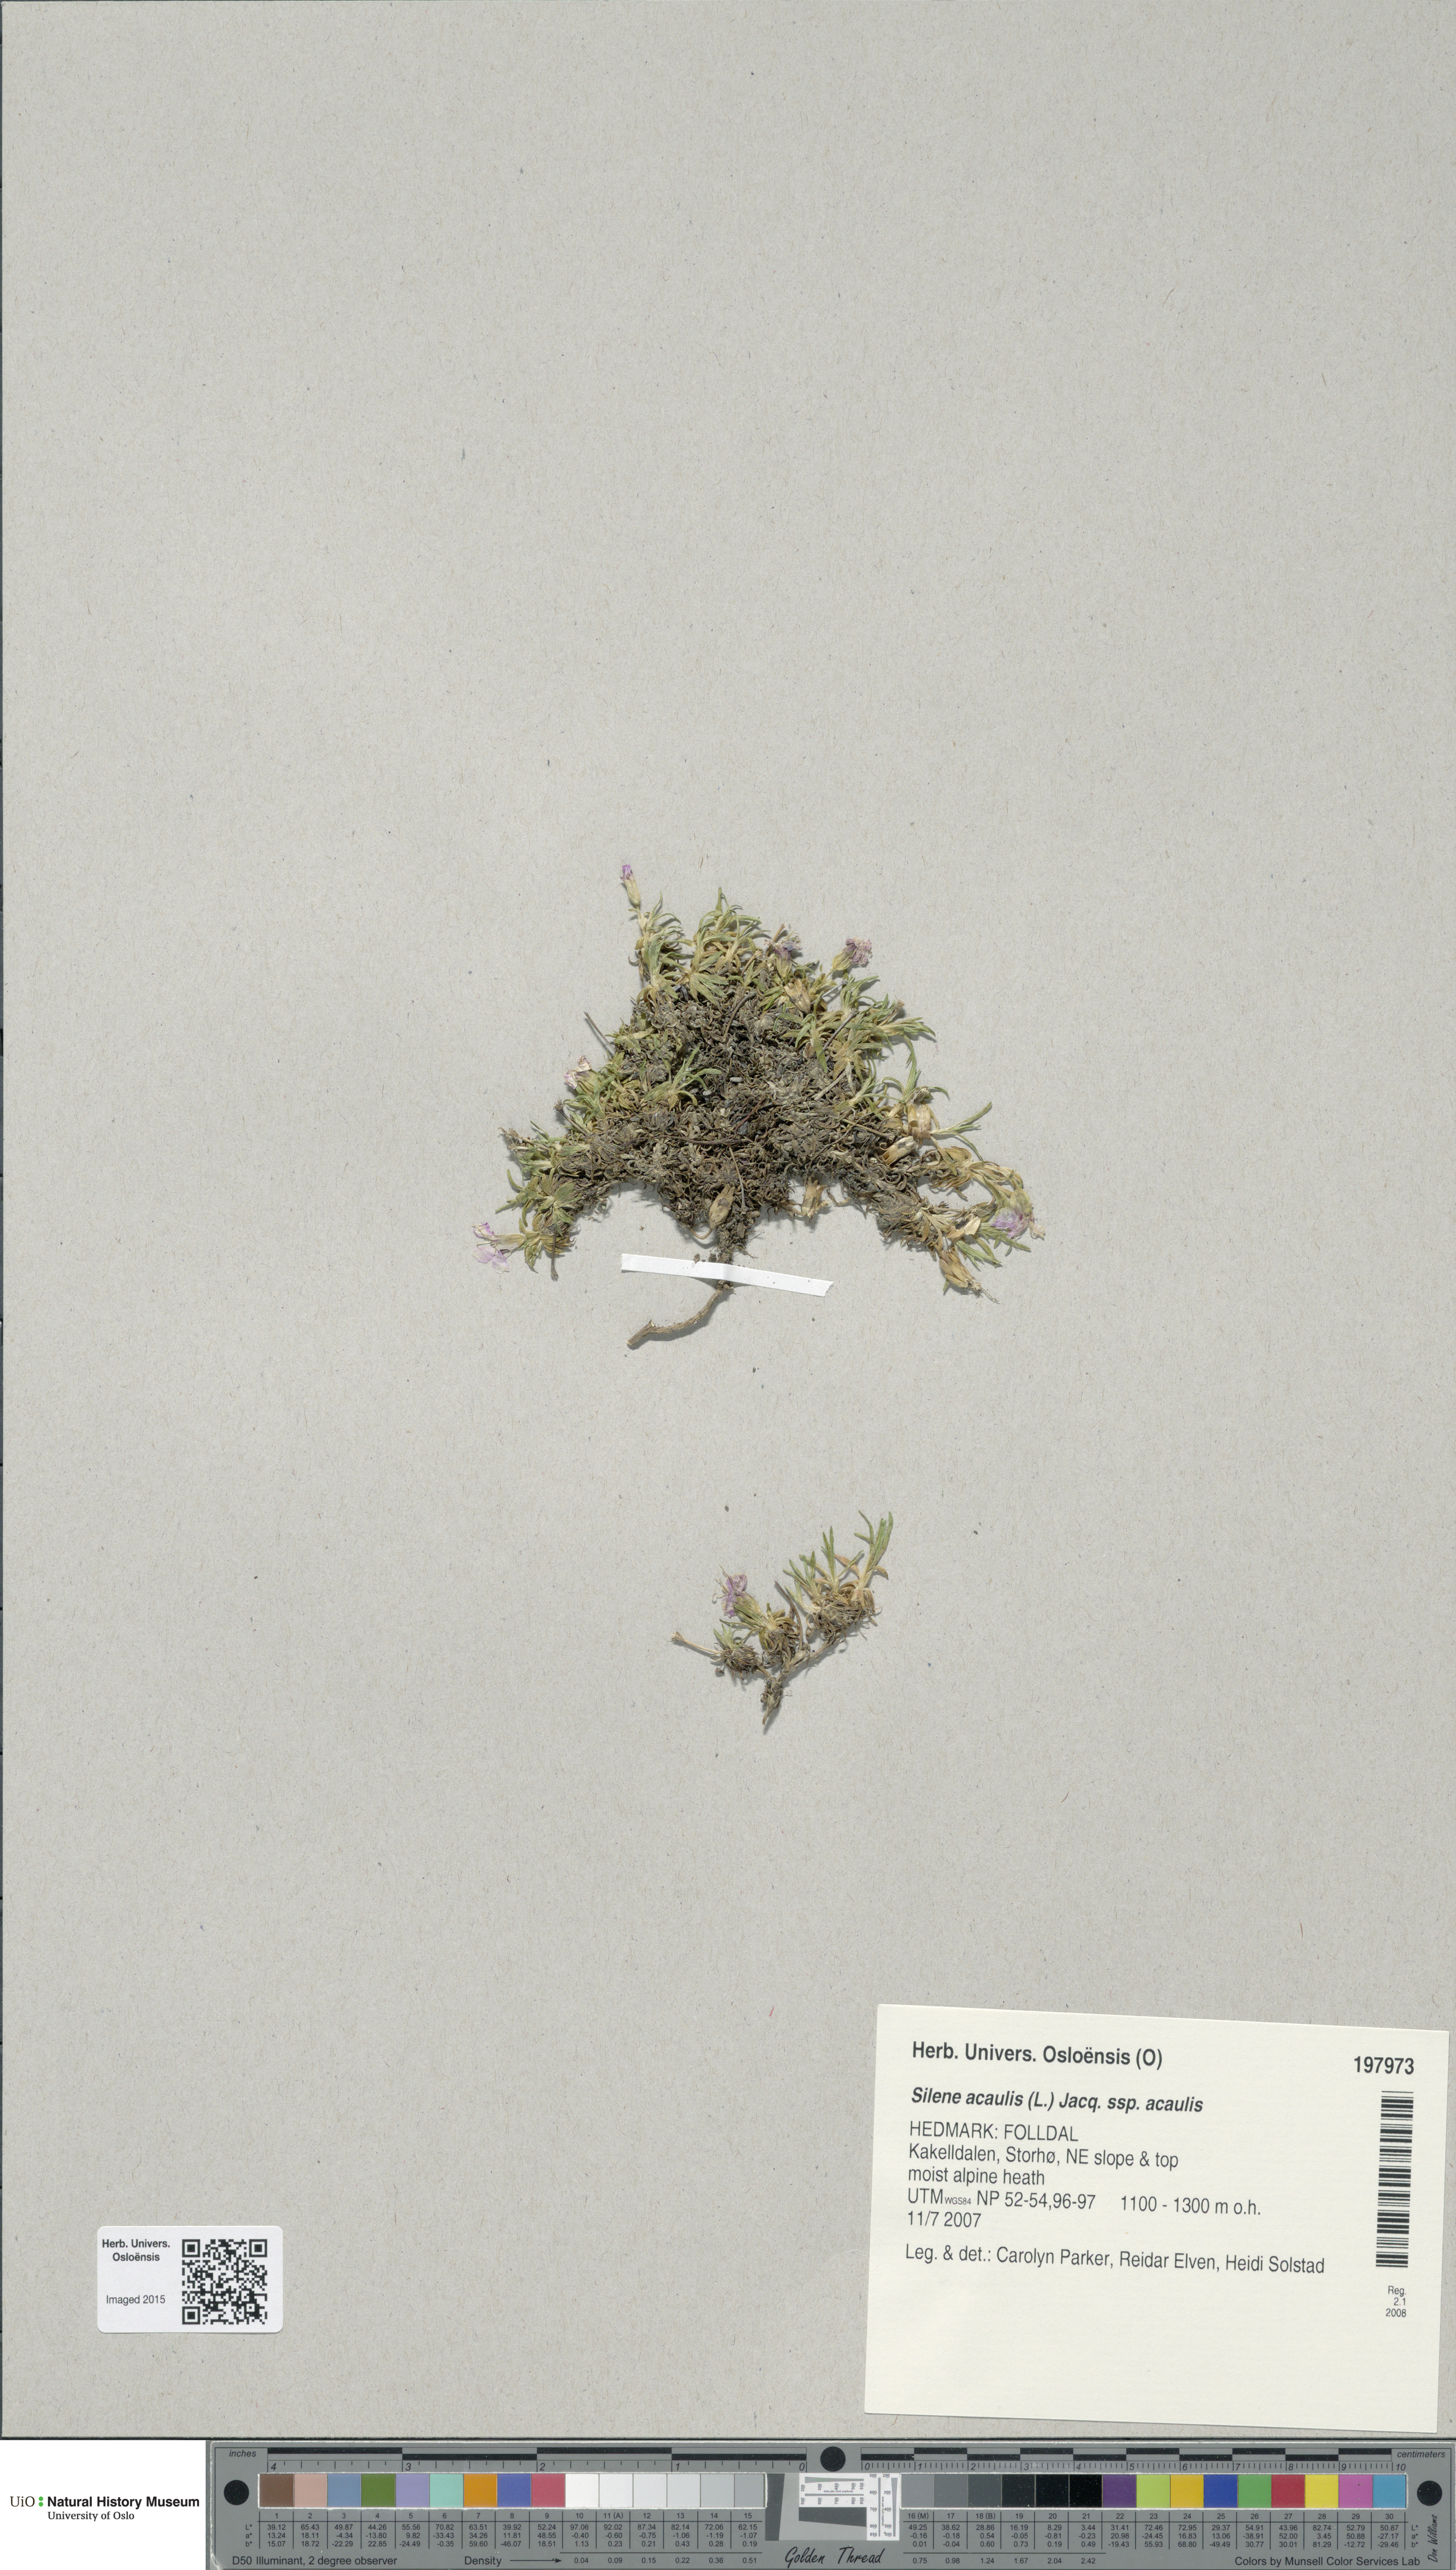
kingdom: Plantae
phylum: Tracheophyta
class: Magnoliopsida
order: Caryophyllales
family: Caryophyllaceae
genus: Silene
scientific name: Silene acaulis
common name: Moss campion
